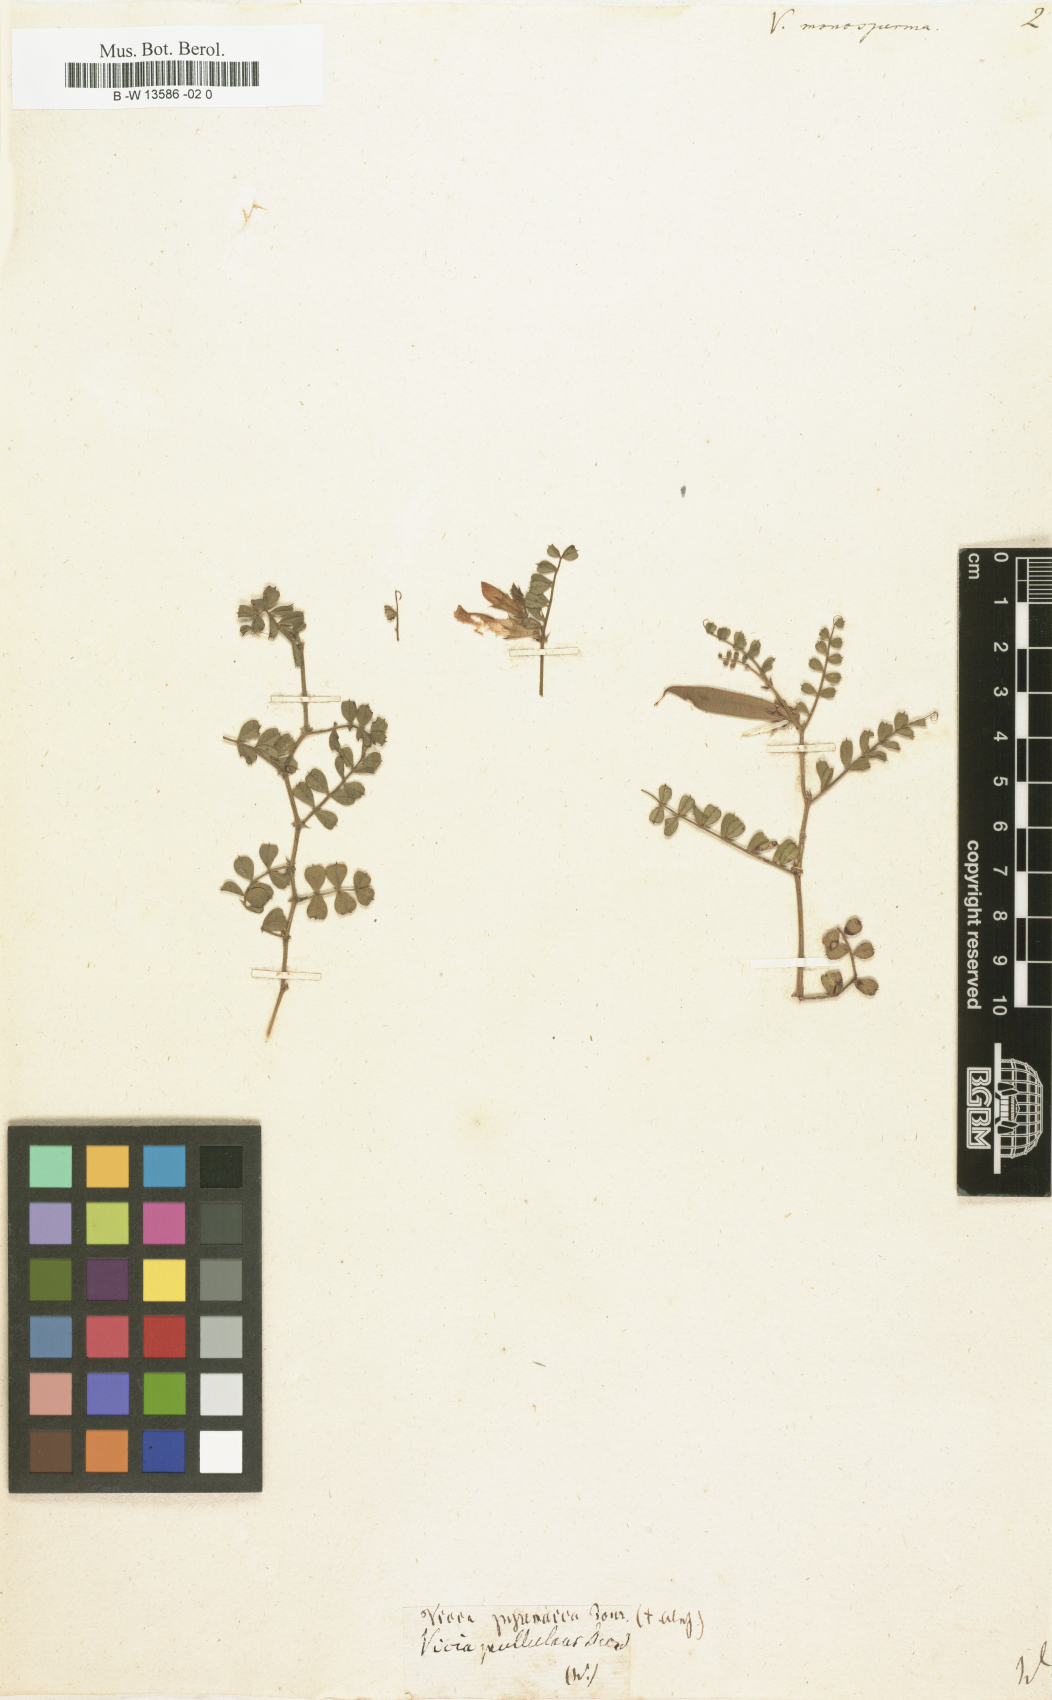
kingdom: Plantae
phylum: Tracheophyta
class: Magnoliopsida
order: Fabales
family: Fabaceae
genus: Vicia
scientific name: Vicia
